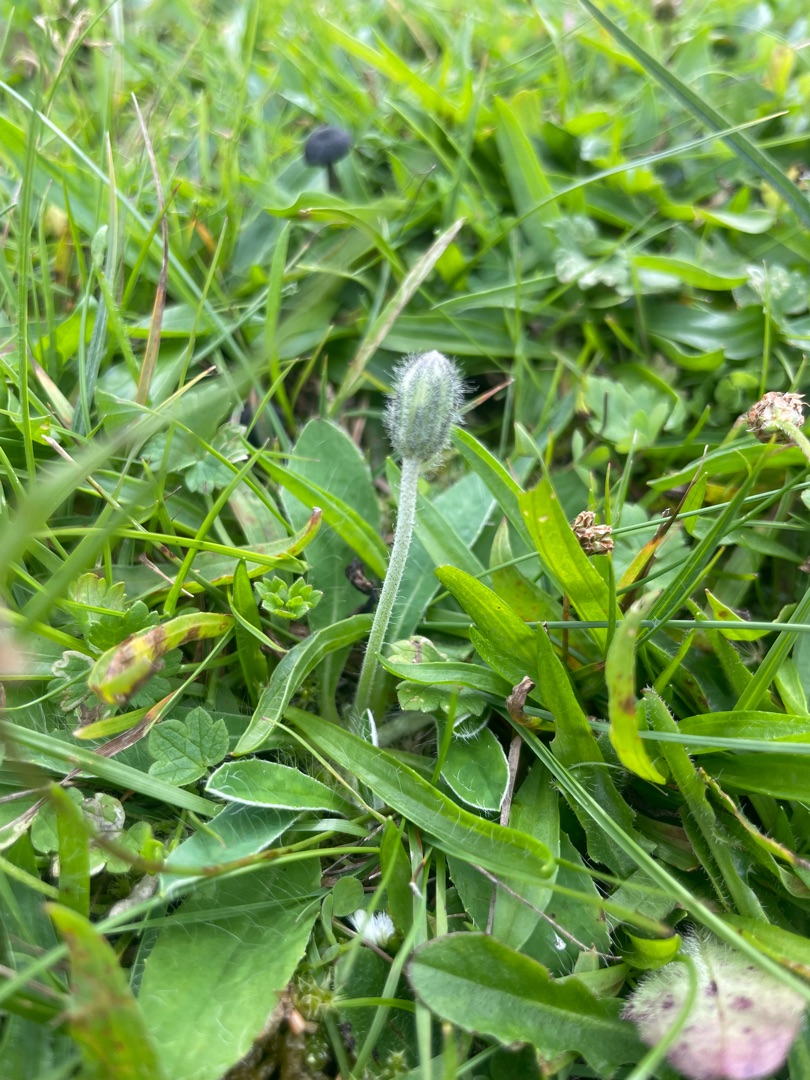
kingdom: Plantae
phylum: Tracheophyta
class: Magnoliopsida
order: Asterales
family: Asteraceae
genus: Pilosella
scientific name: Pilosella officinarum
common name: Håret høgeurt
